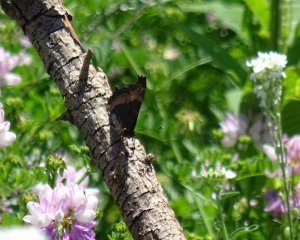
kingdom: Animalia
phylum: Arthropoda
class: Insecta
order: Lepidoptera
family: Nymphalidae
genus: Aglais
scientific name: Aglais milberti
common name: Milbert's Tortoiseshell
